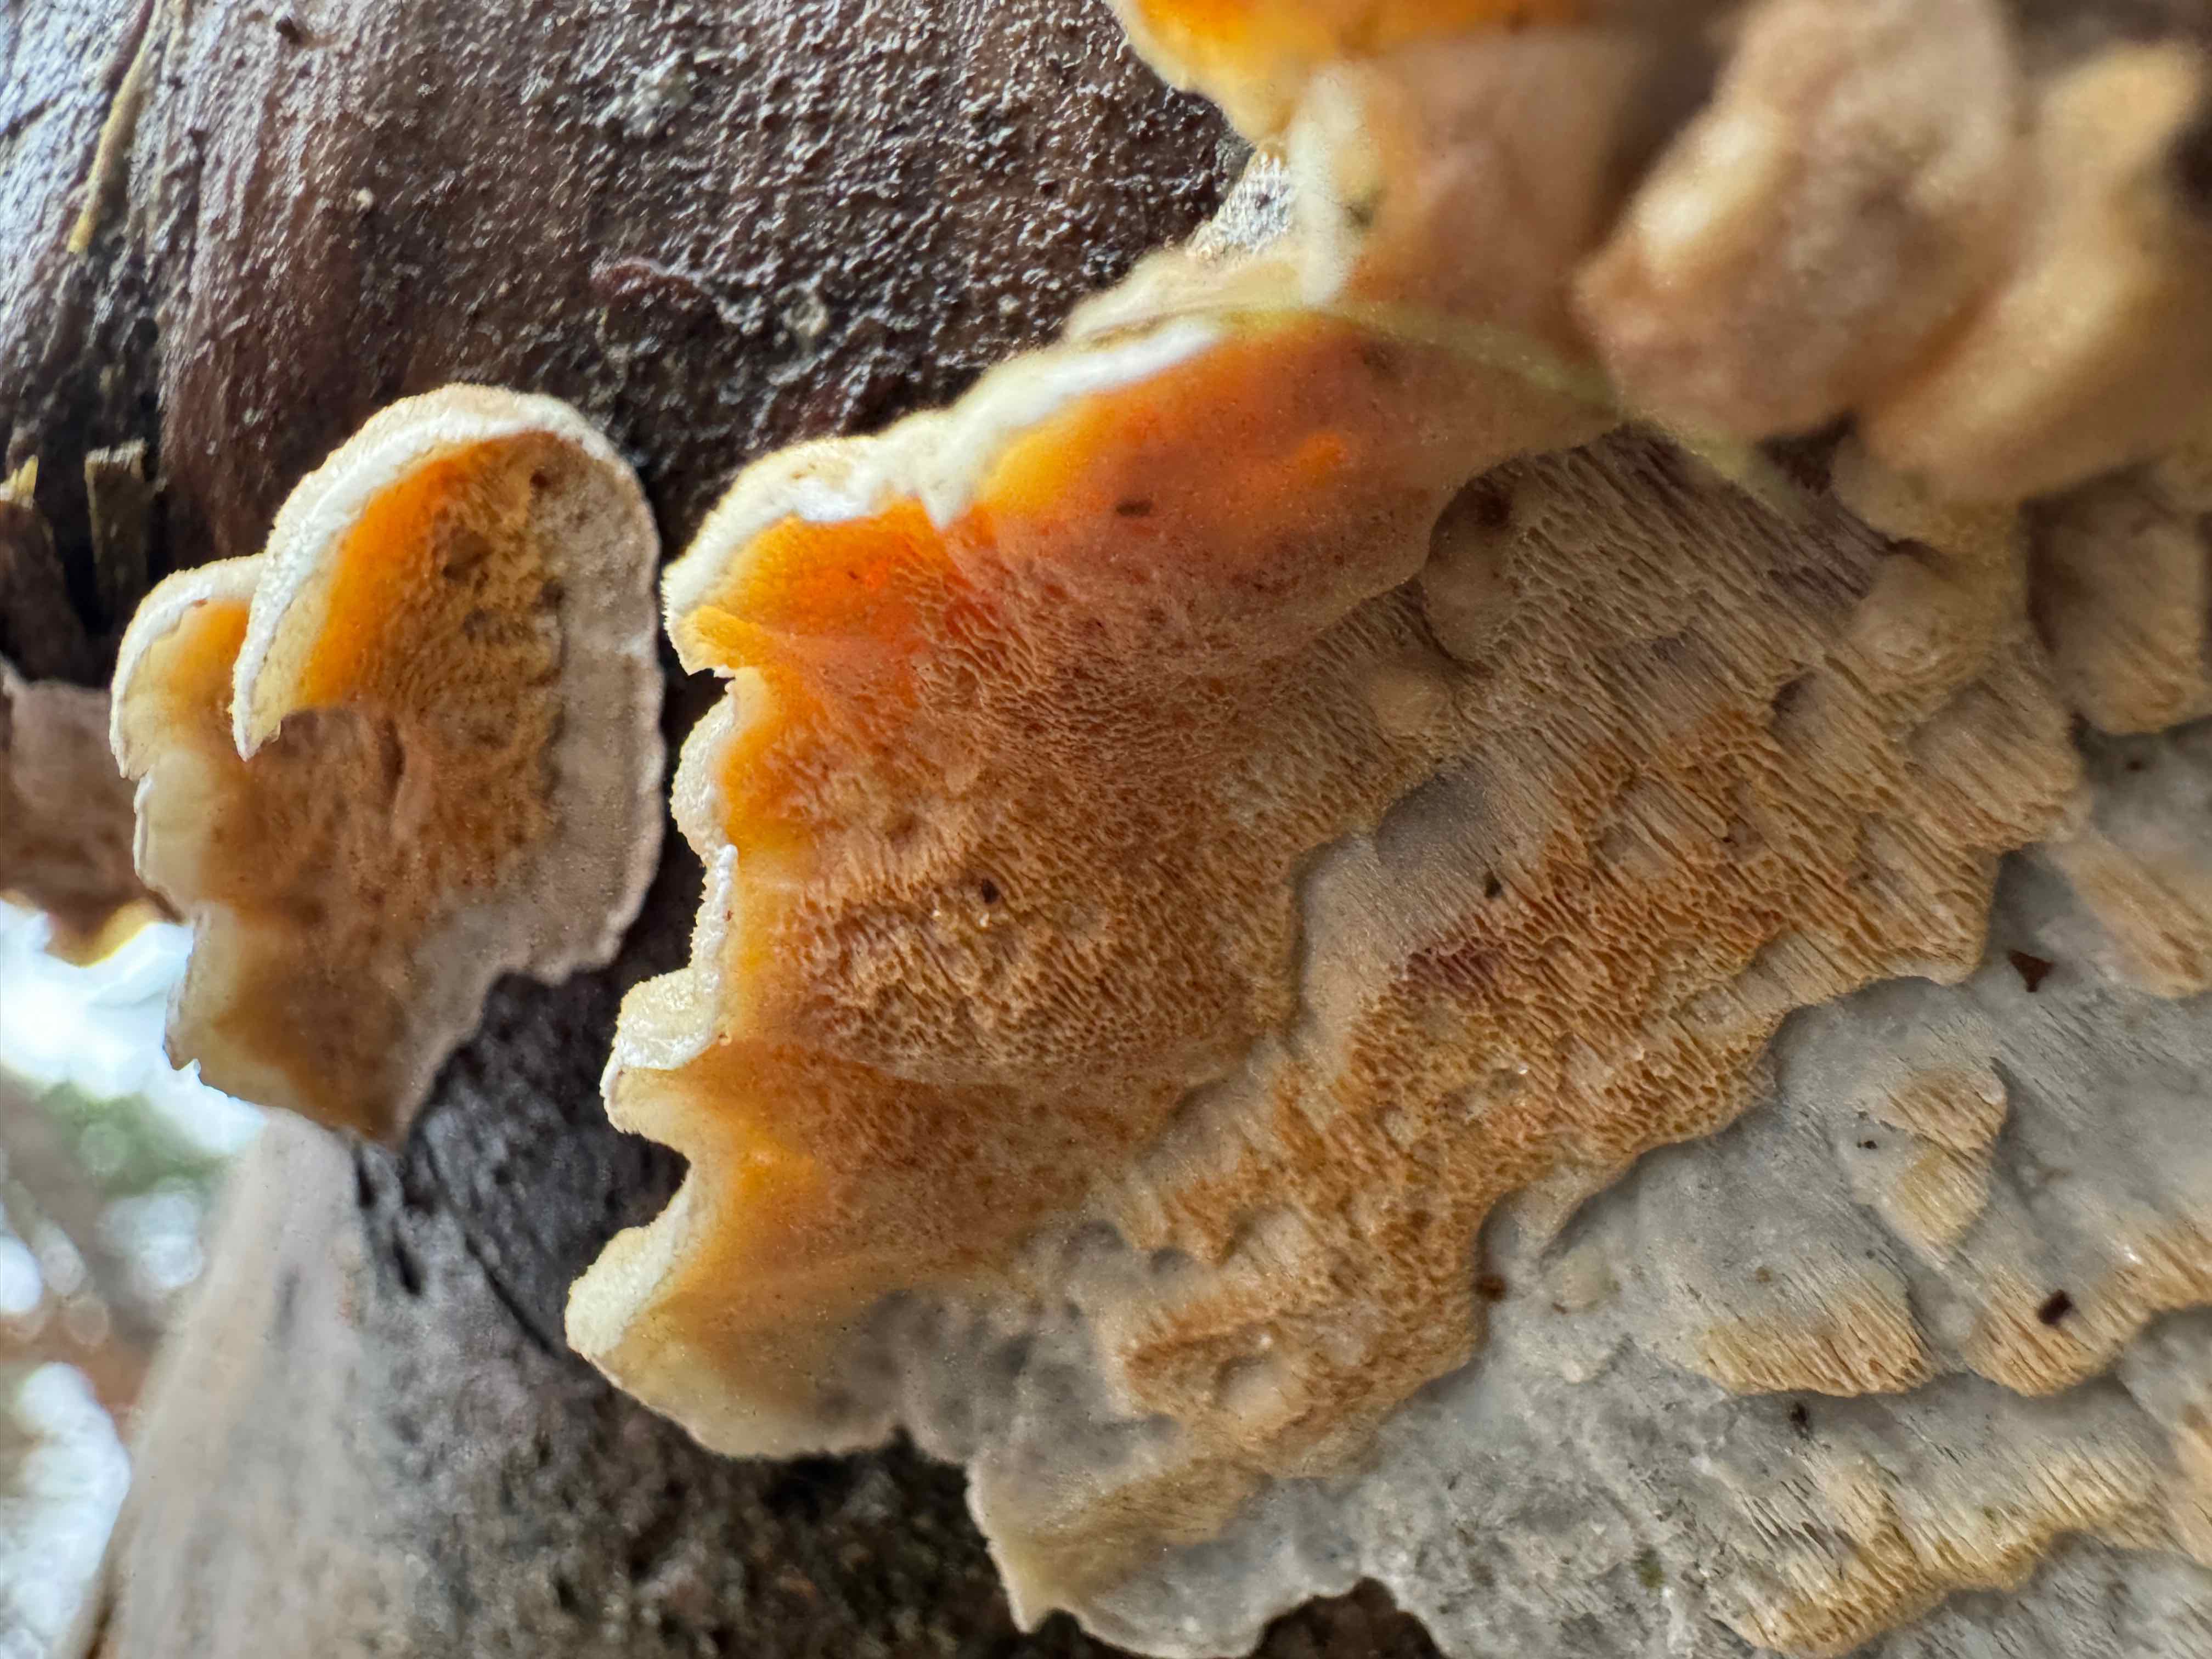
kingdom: Fungi
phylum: Basidiomycota
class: Agaricomycetes
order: Polyporales
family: Incrustoporiaceae
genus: Skeletocutis
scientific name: Skeletocutis amorpha
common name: orange krystalporesvamp
